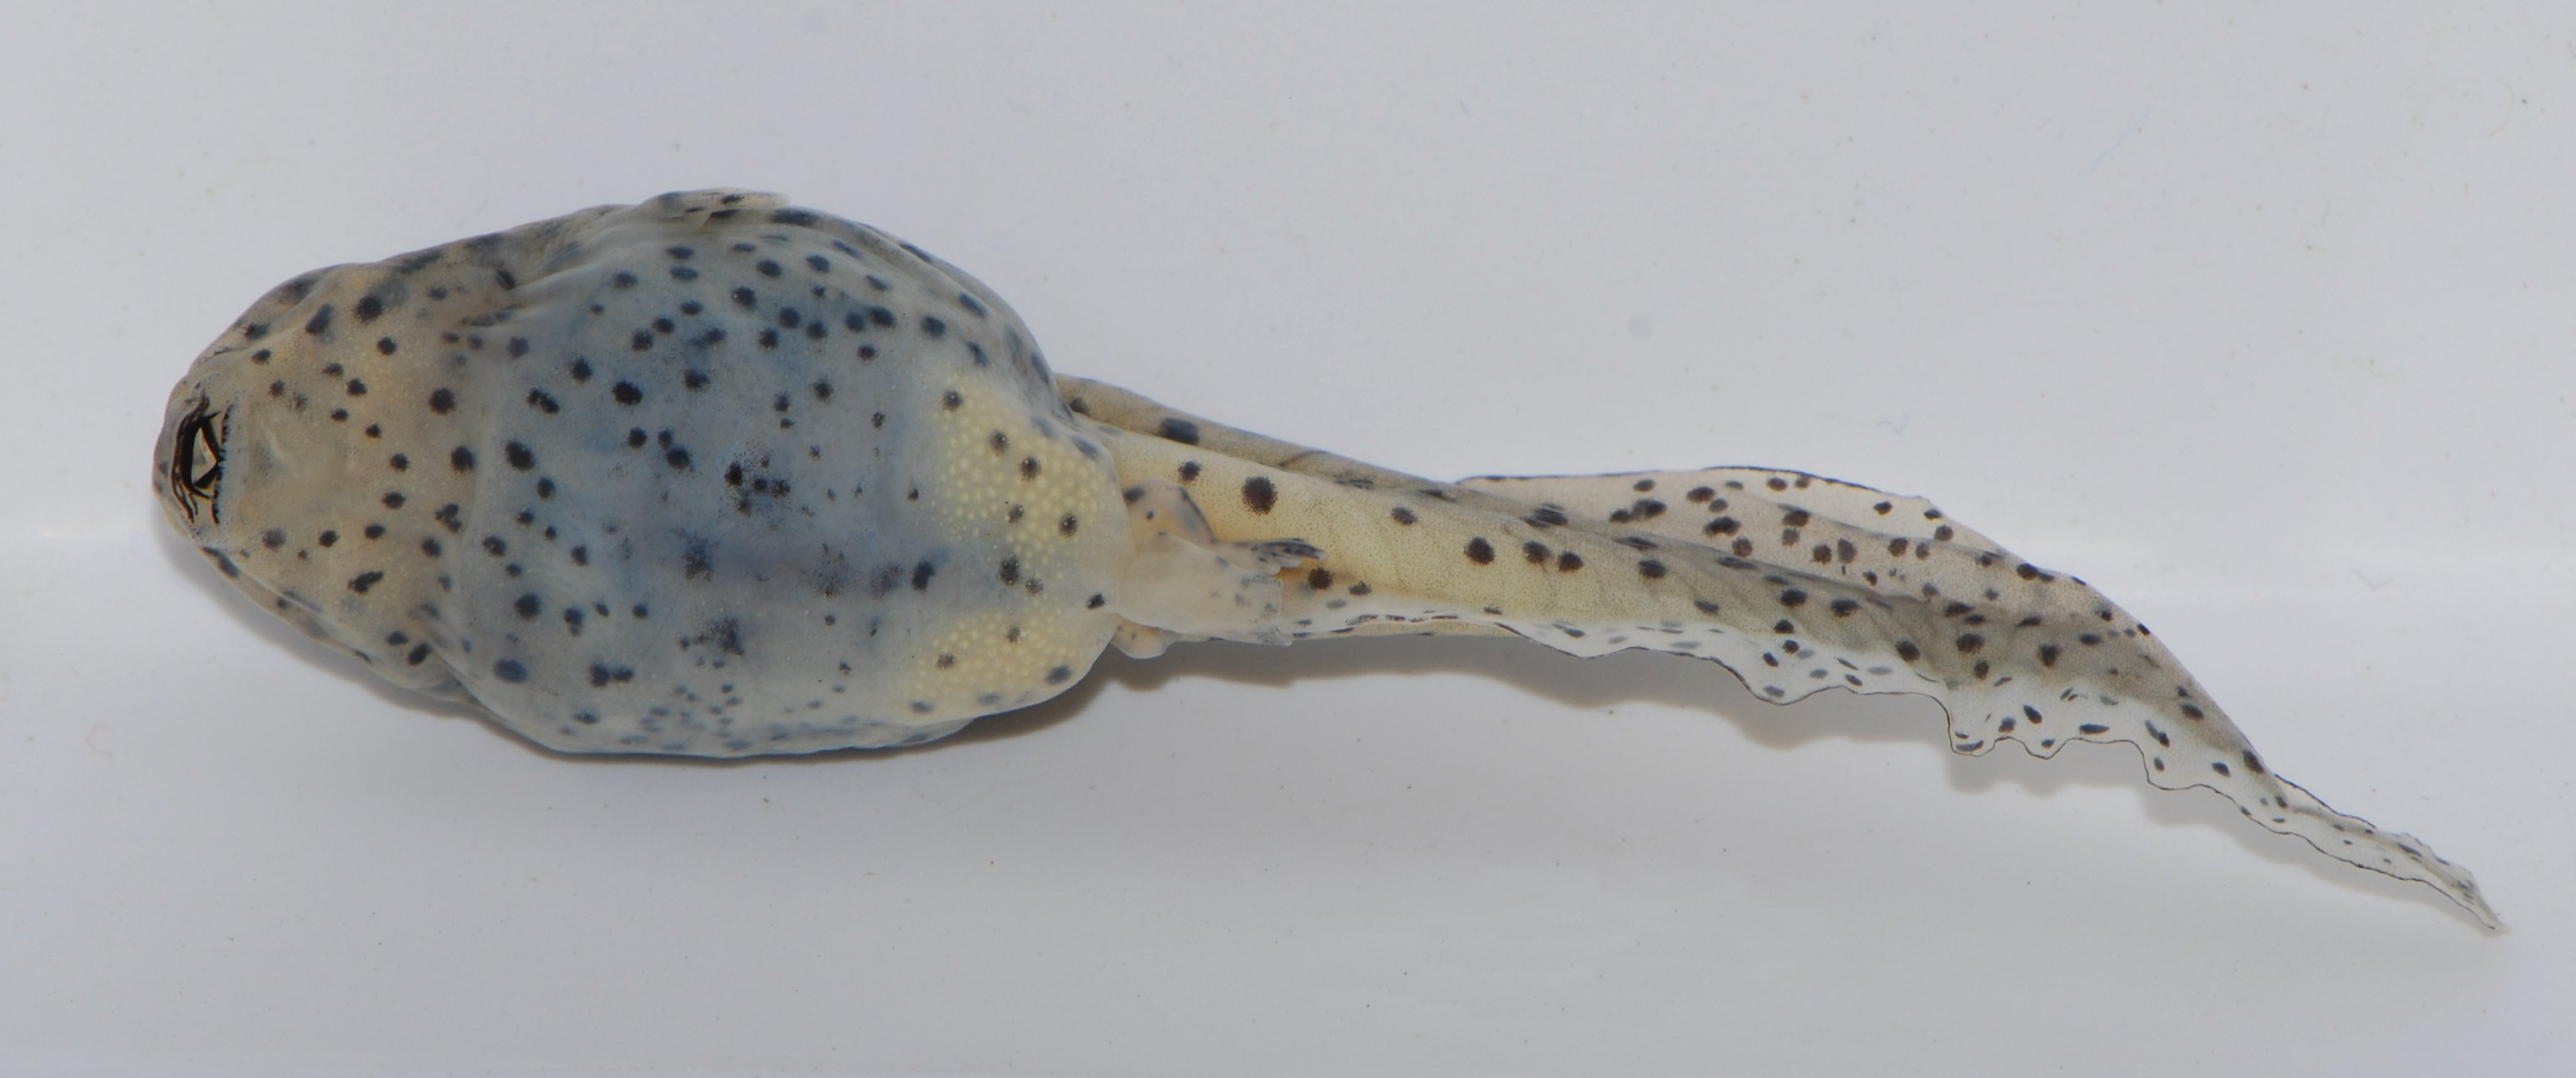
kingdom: Animalia
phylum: Chordata
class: Amphibia
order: Anura
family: Ranidae
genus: Amnirana
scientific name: Amnirana darlingi
